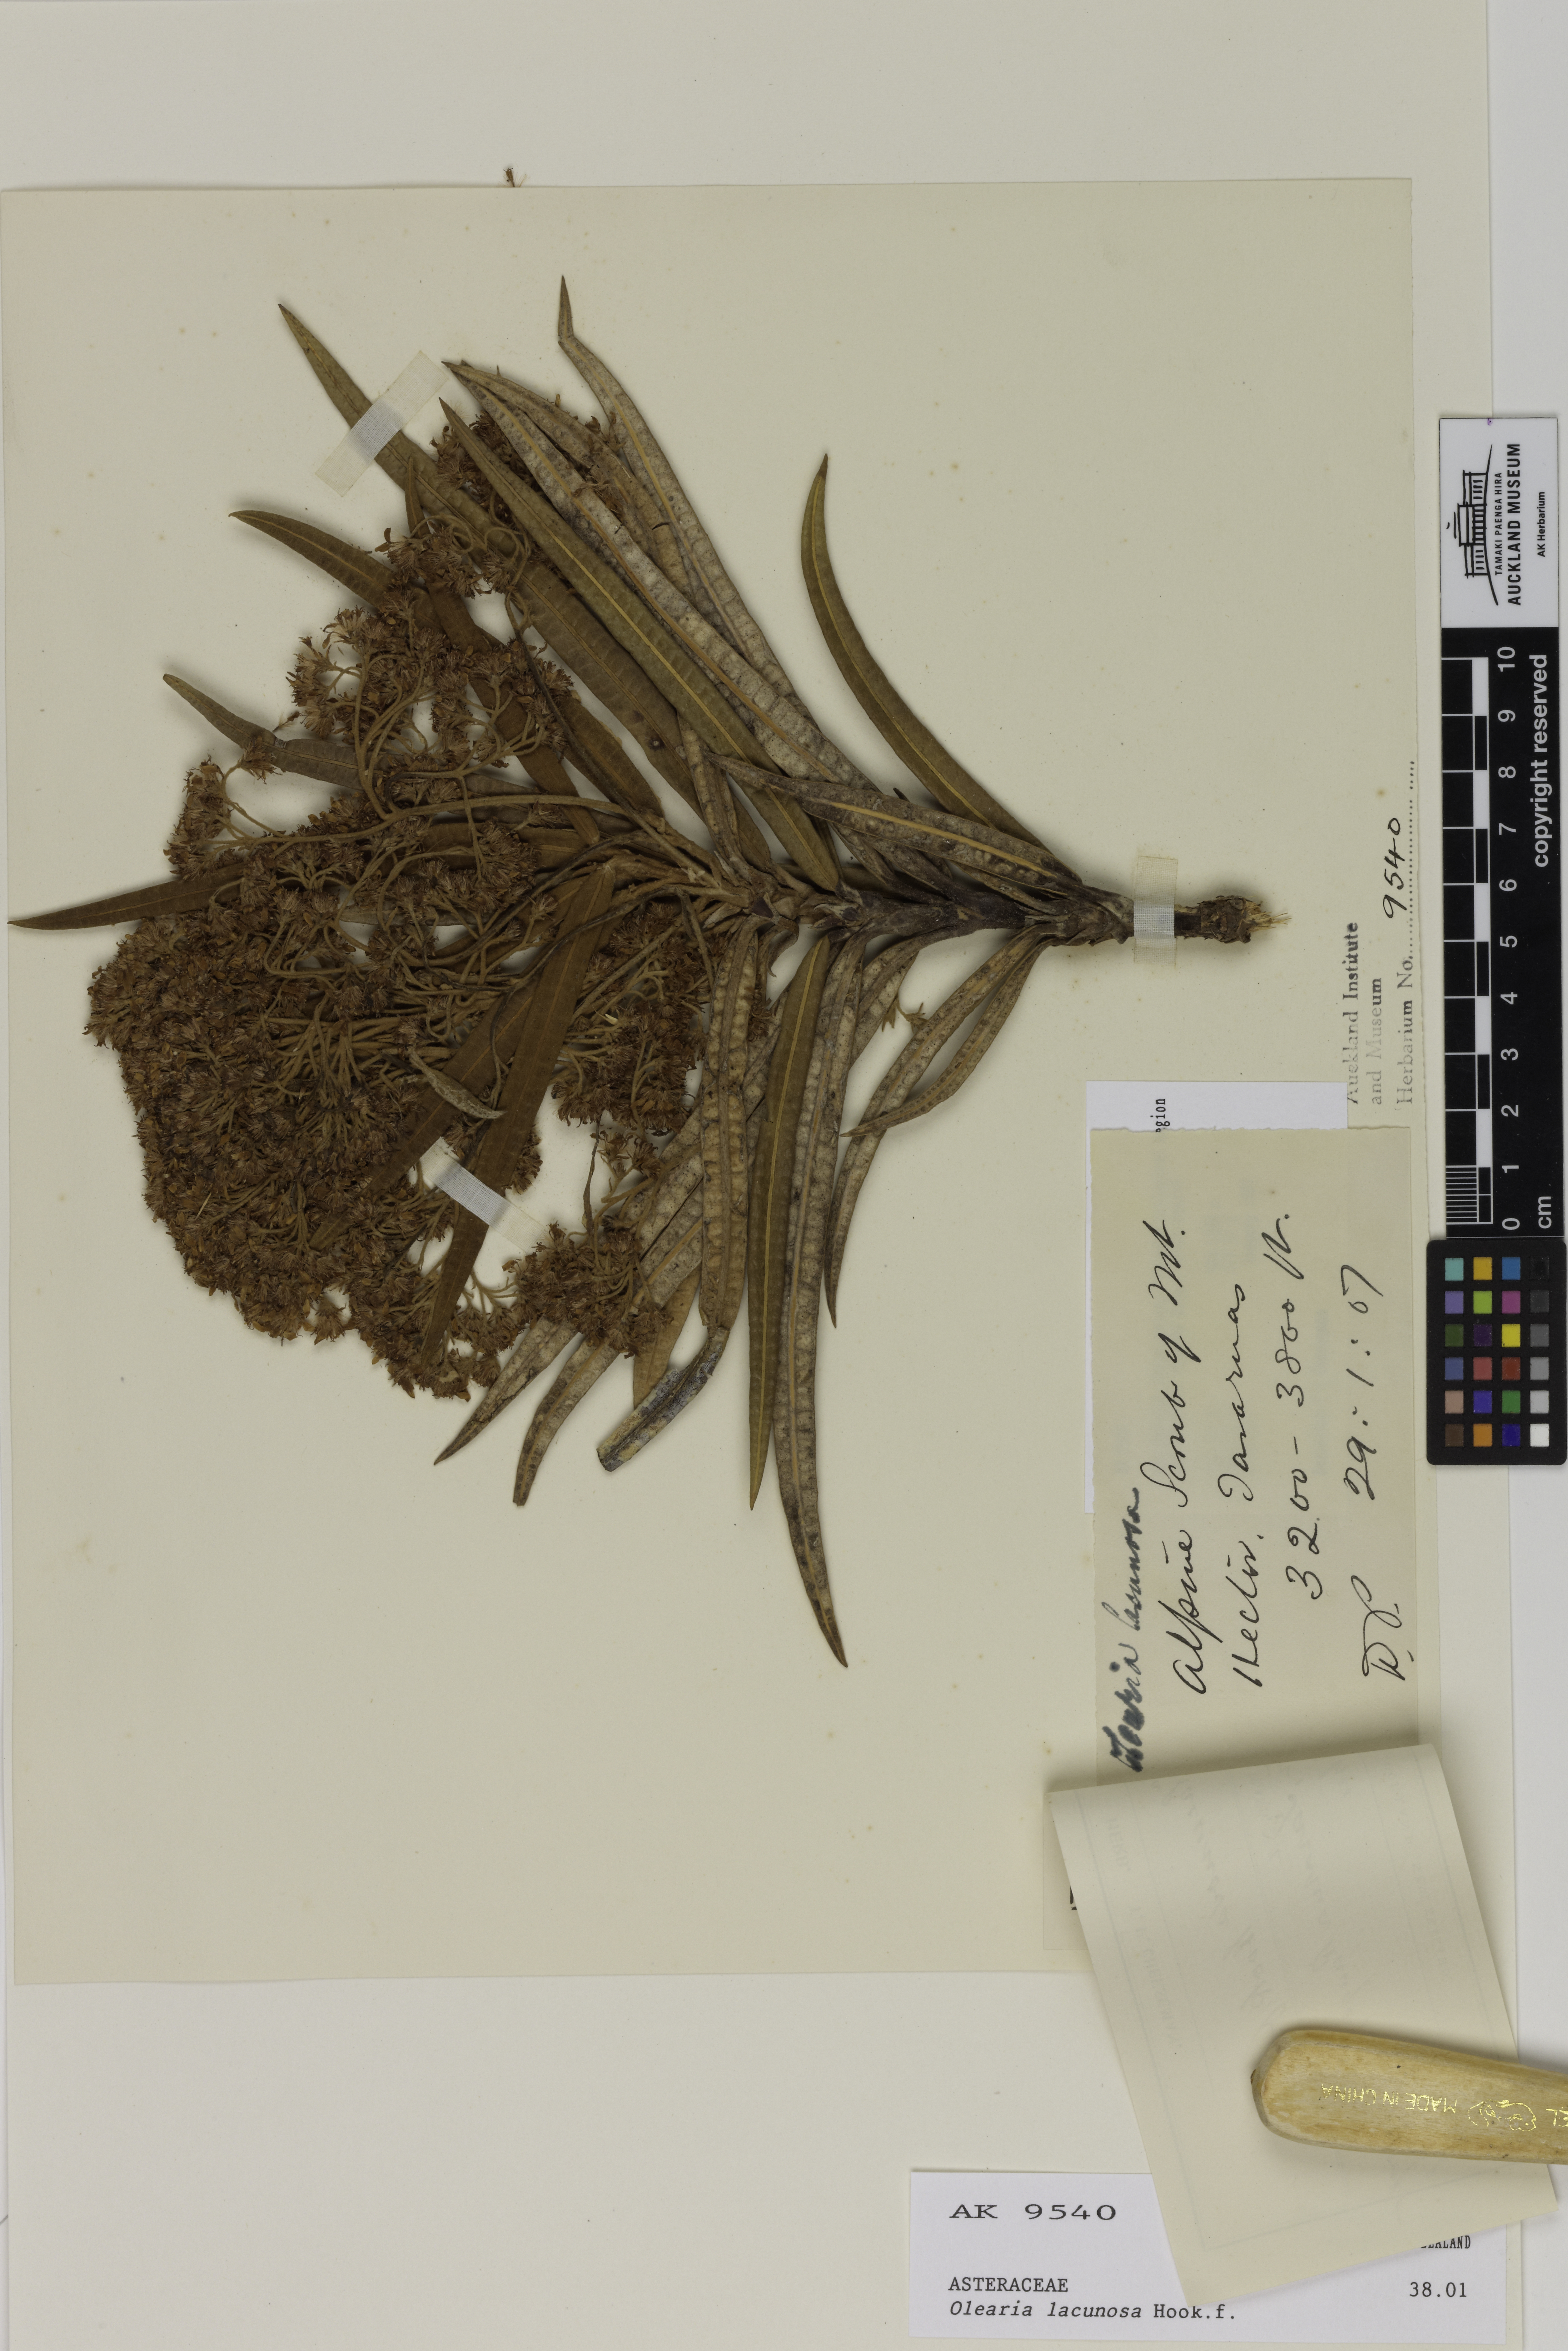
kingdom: Plantae
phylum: Tracheophyta
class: Magnoliopsida
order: Asterales
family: Asteraceae
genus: Olearia
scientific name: Olearia lacunosa
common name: Lancewood tree daisy
